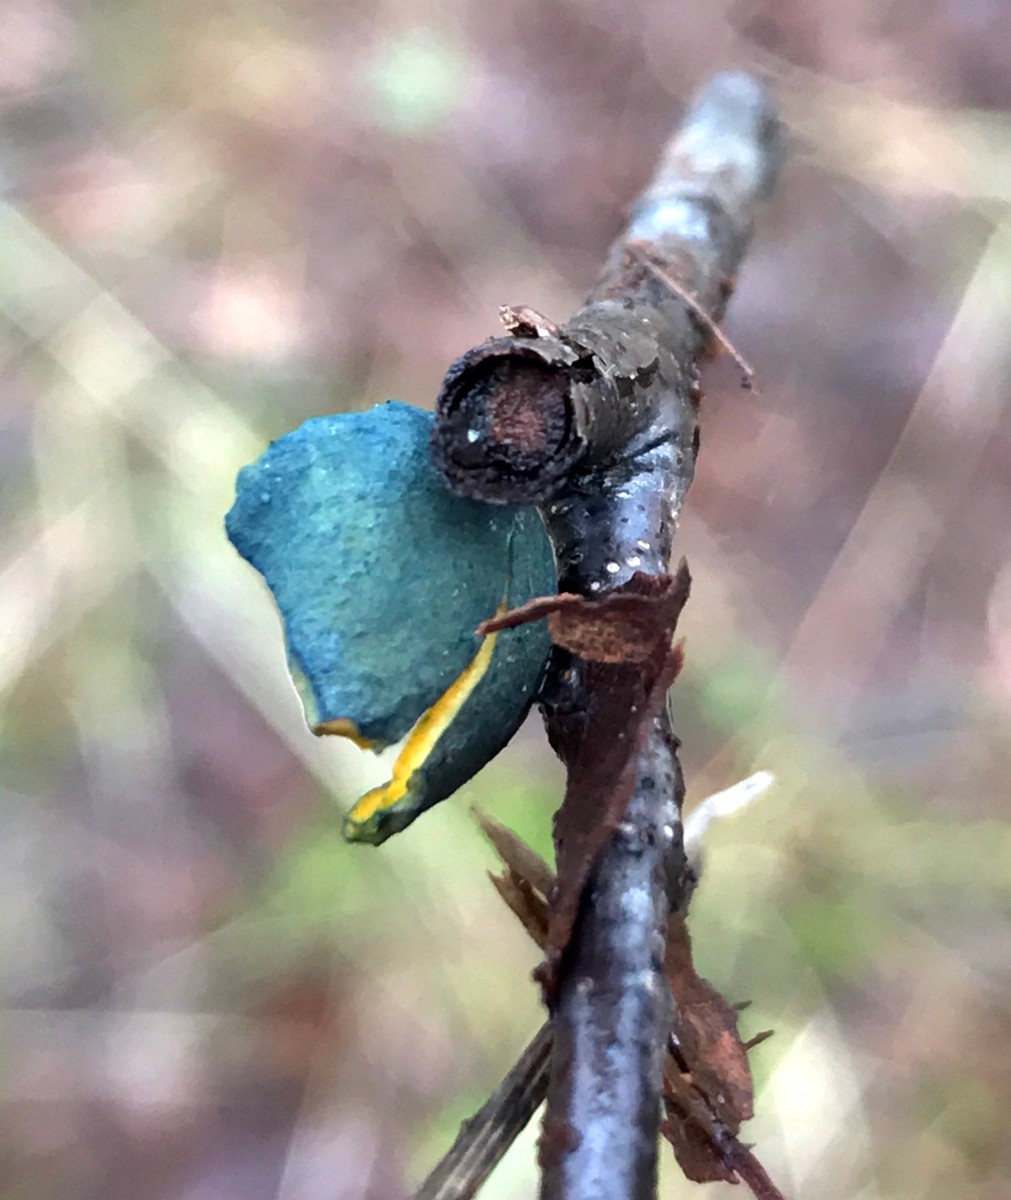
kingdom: Fungi
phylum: Ascomycota
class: Pezizomycetes
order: Pezizales
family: Caloscyphaceae
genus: Caloscypha
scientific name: Caloscypha fulgens
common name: jadebæger
